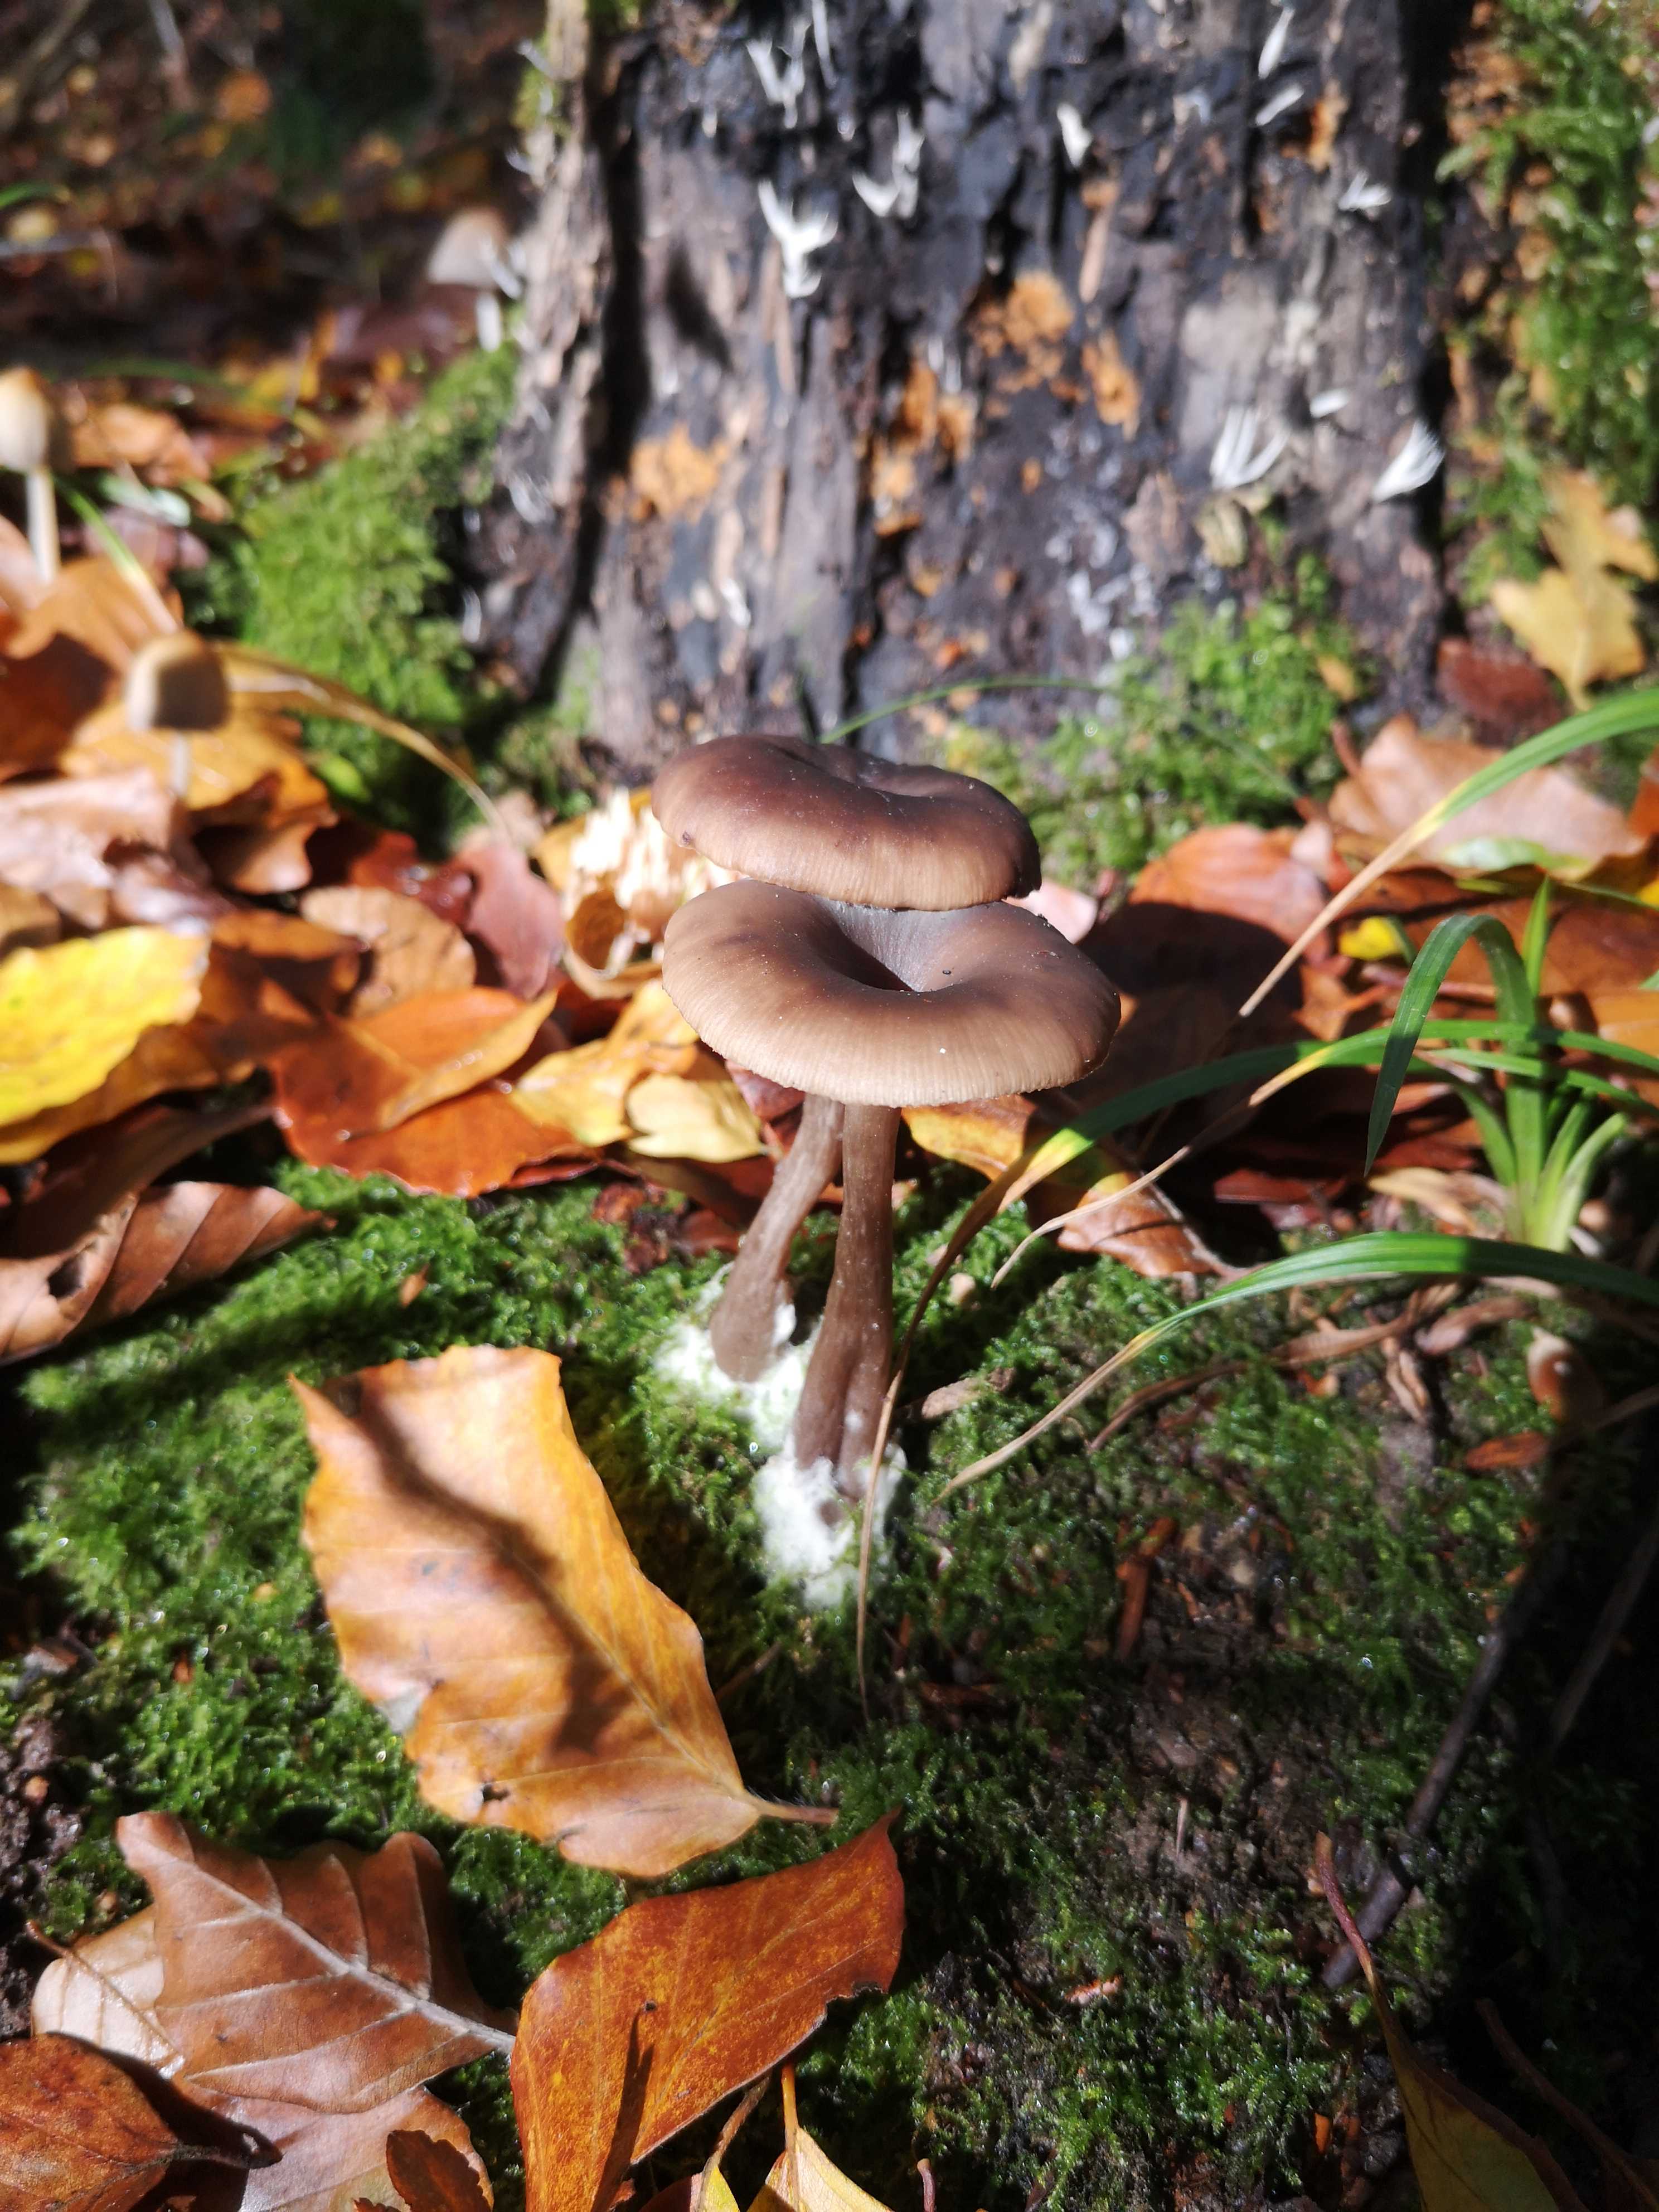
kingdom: Fungi
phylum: Basidiomycota
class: Agaricomycetes
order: Agaricales
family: Pseudoclitocybaceae
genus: Pseudoclitocybe
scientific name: Pseudoclitocybe cyathiformis
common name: almindelig bægertragthat
